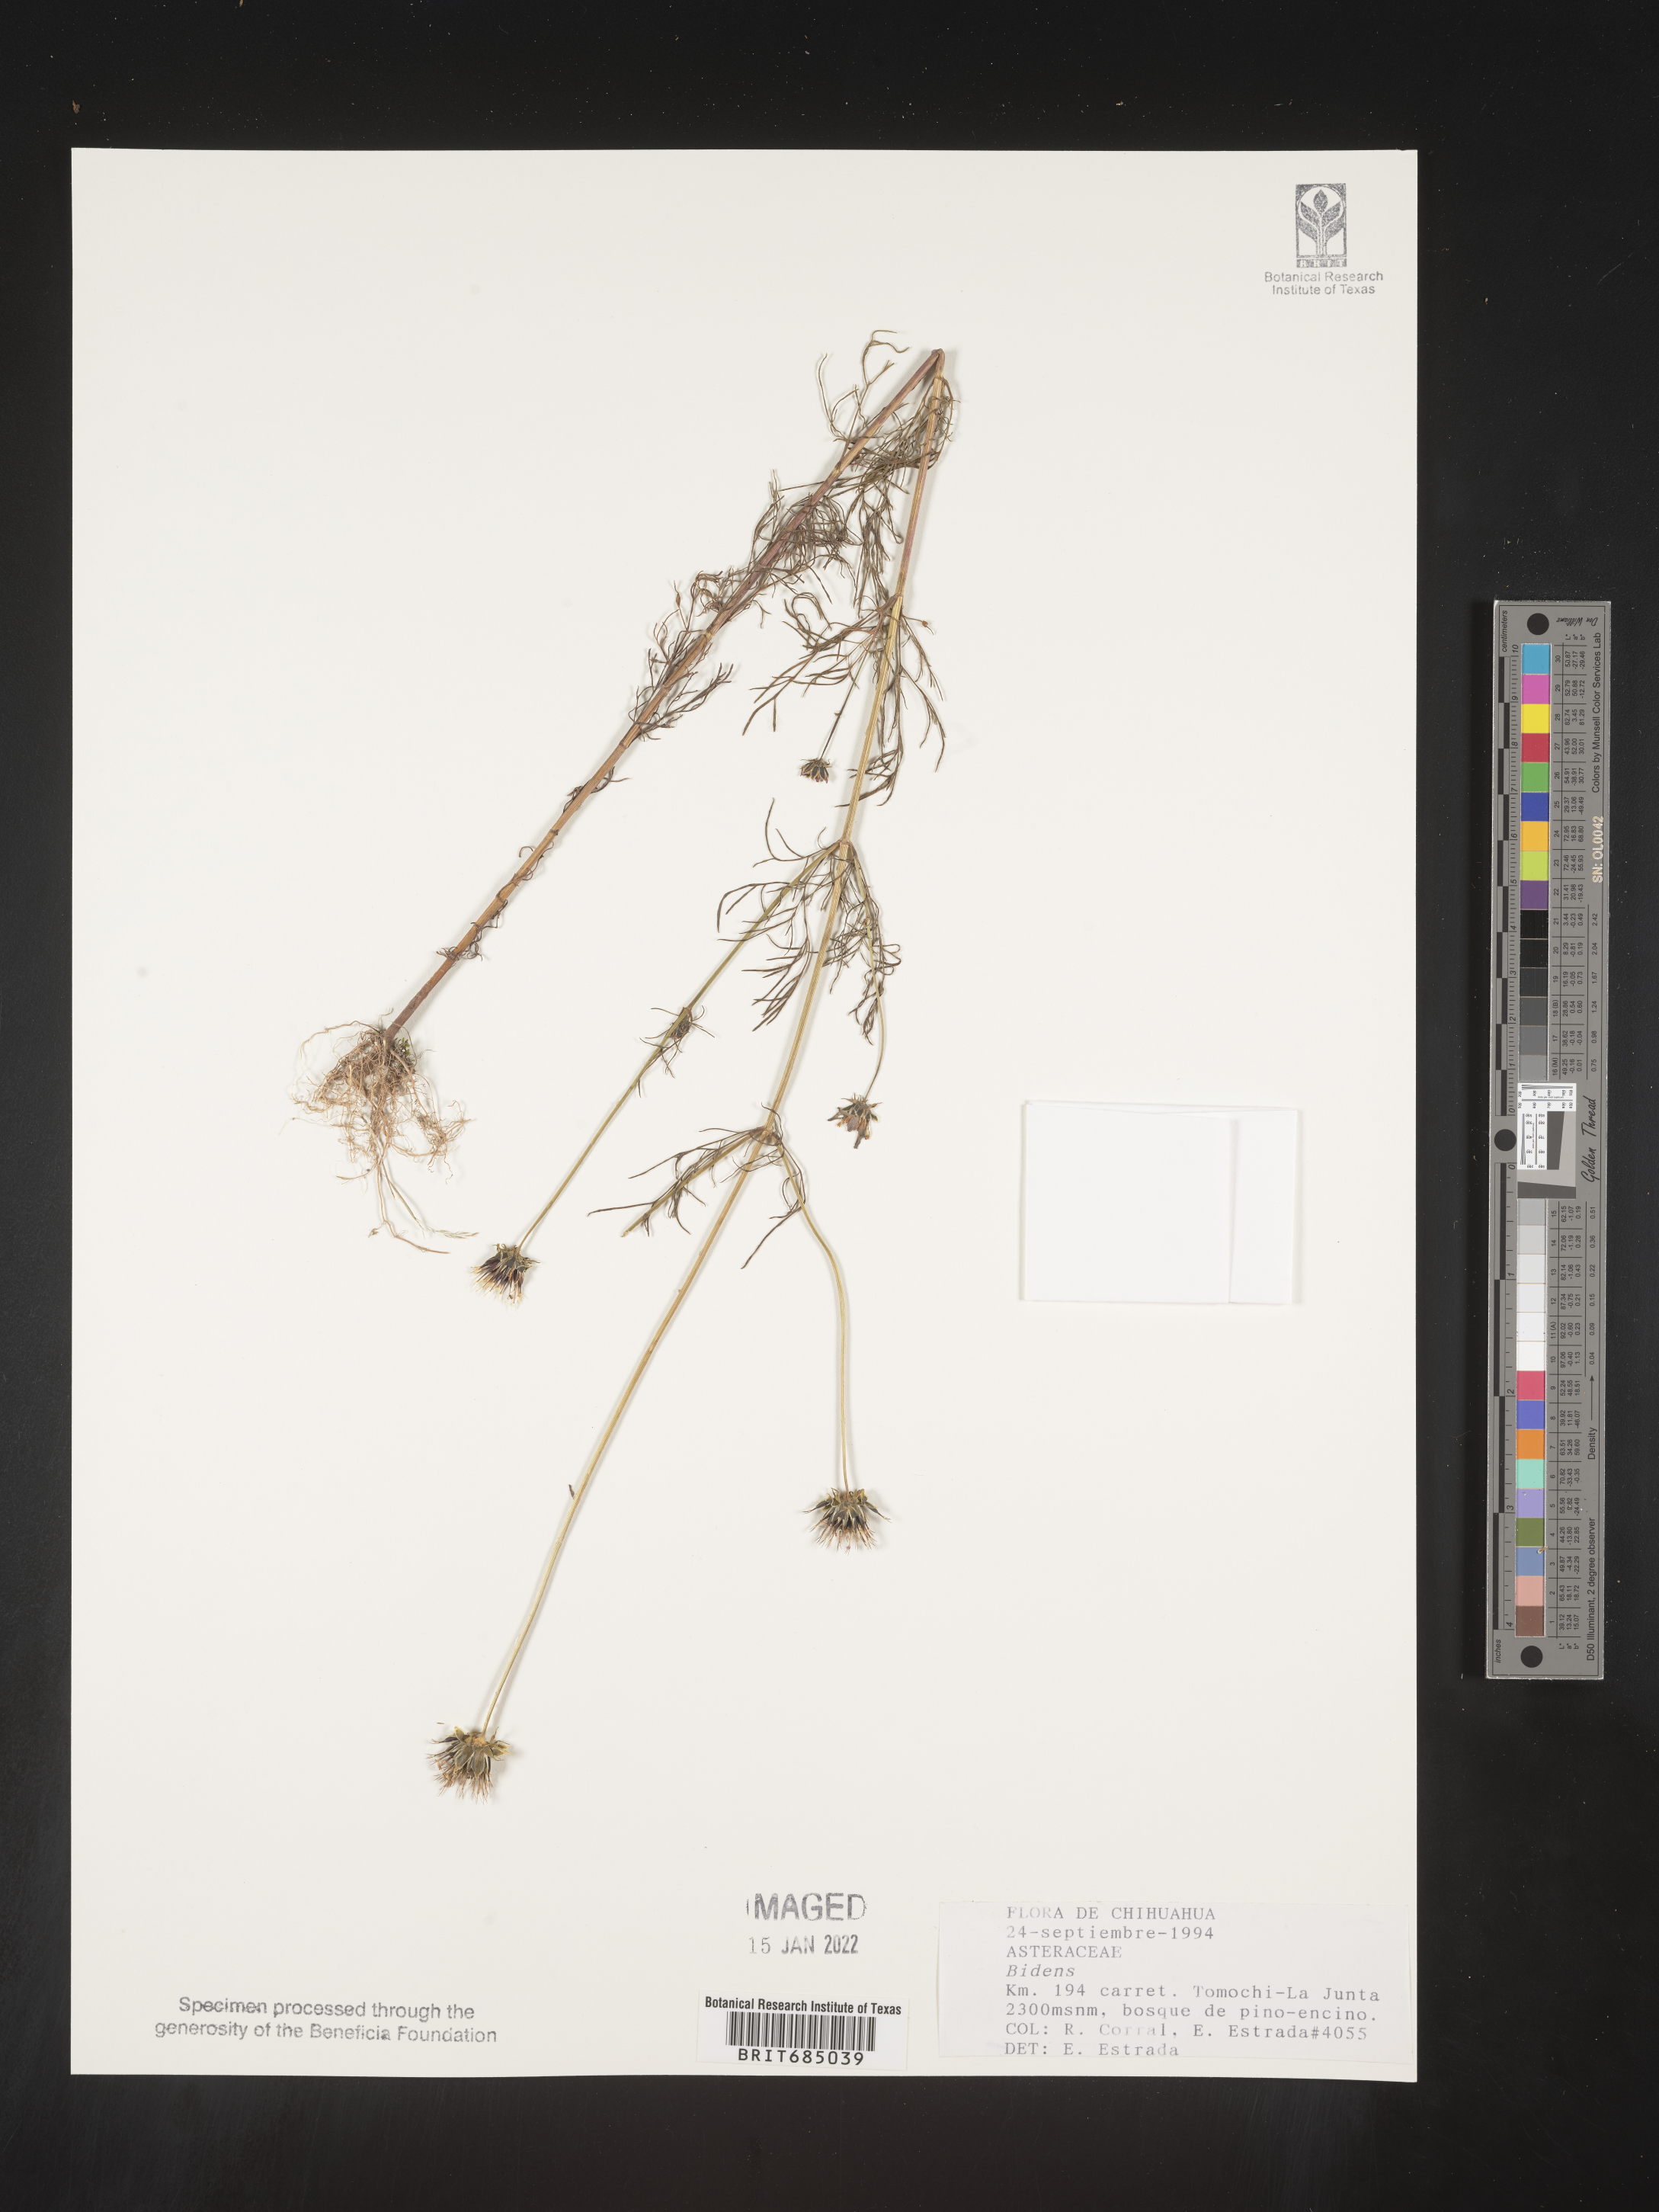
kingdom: Plantae
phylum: Tracheophyta
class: Magnoliopsida
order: Asterales
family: Asteraceae
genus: Bidens
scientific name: Bidens
